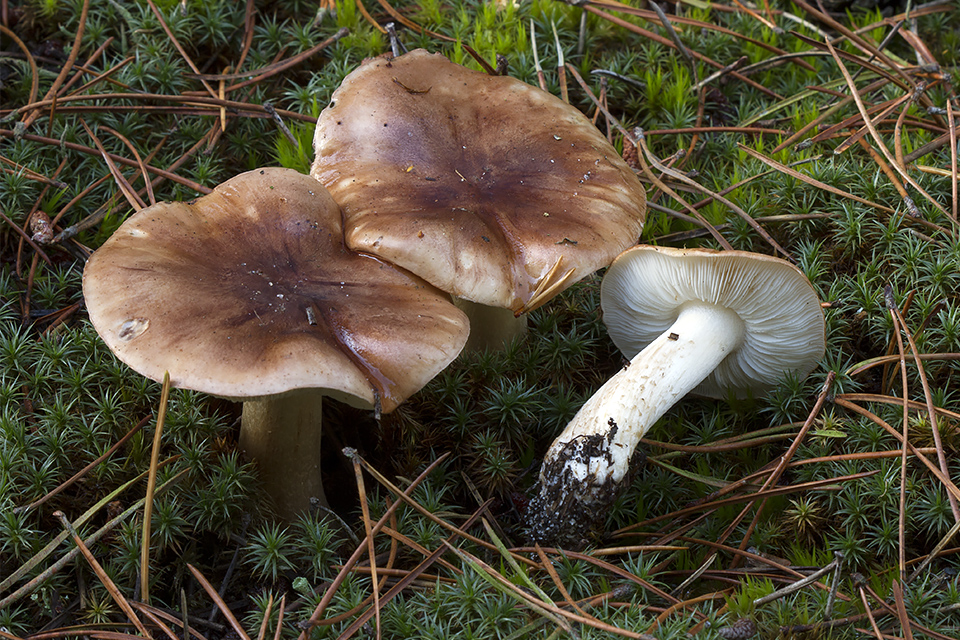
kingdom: Fungi
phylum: Basidiomycota
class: Agaricomycetes
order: Agaricales
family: Tricholomataceae
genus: Tricholoma
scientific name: Tricholoma pessundatum
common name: dråbeplettet ridderhat
